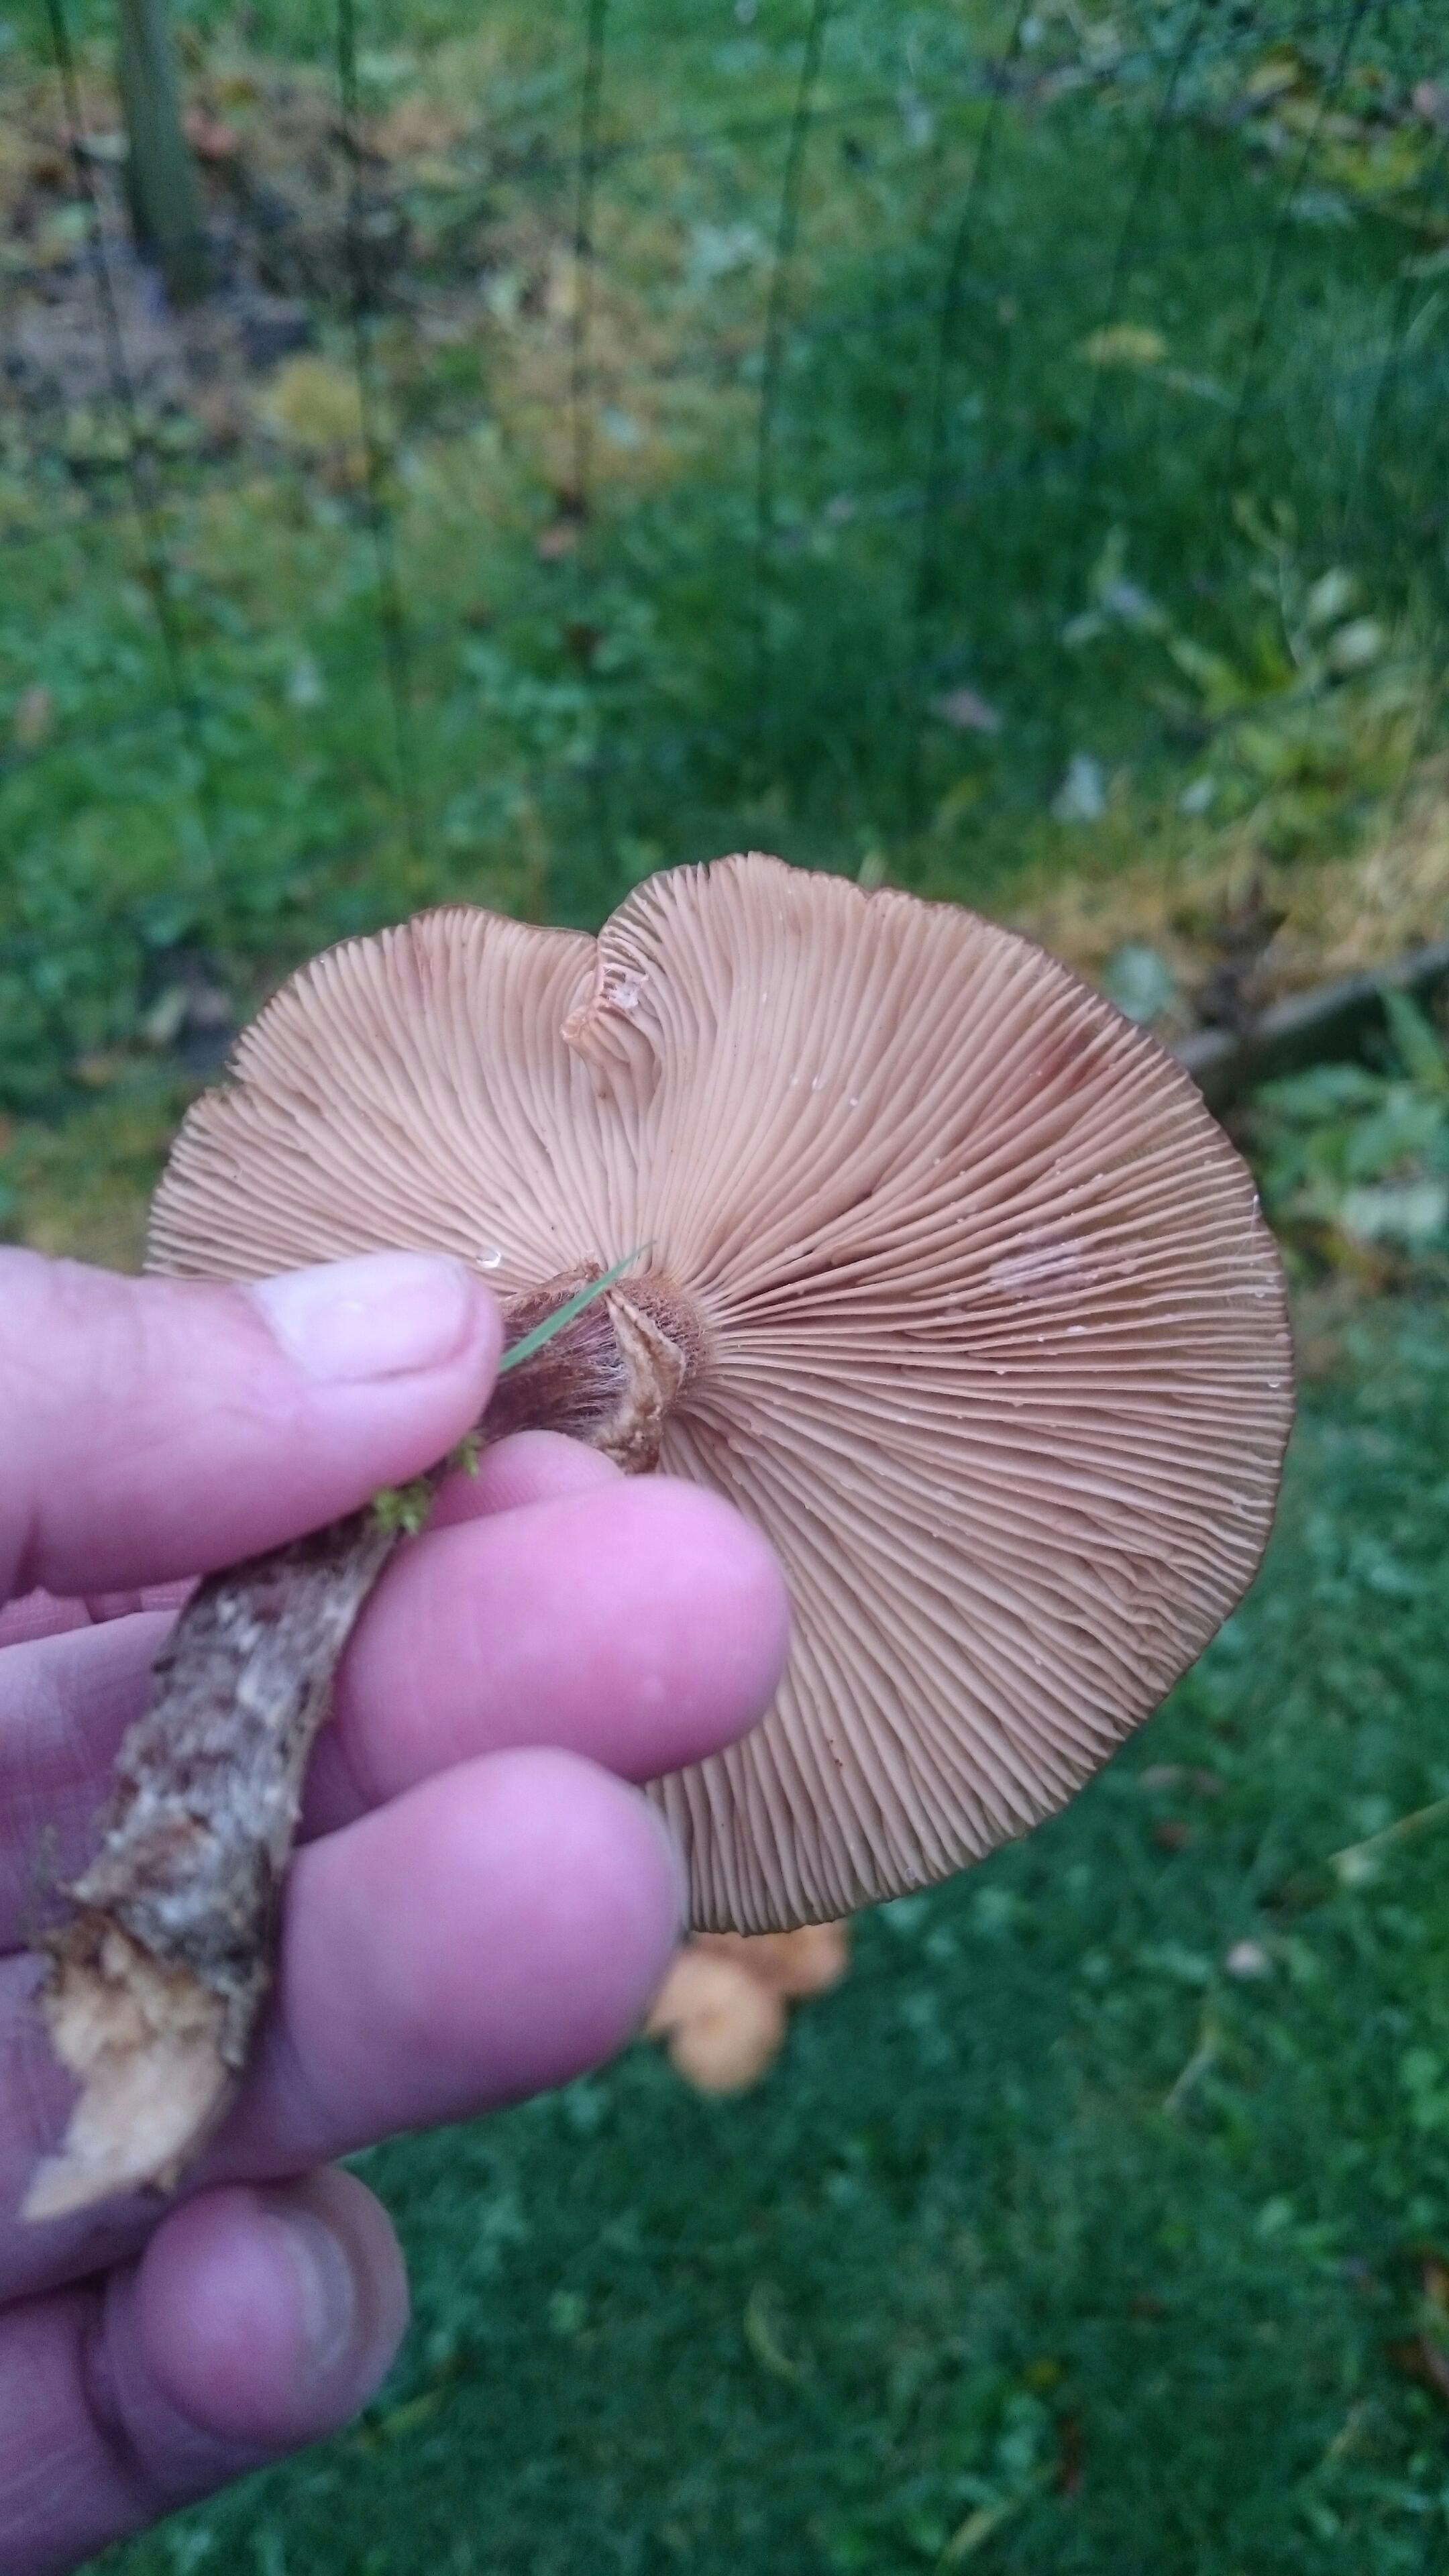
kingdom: Fungi
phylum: Basidiomycota
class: Agaricomycetes
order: Agaricales
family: Physalacriaceae
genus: Armillaria
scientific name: Armillaria
